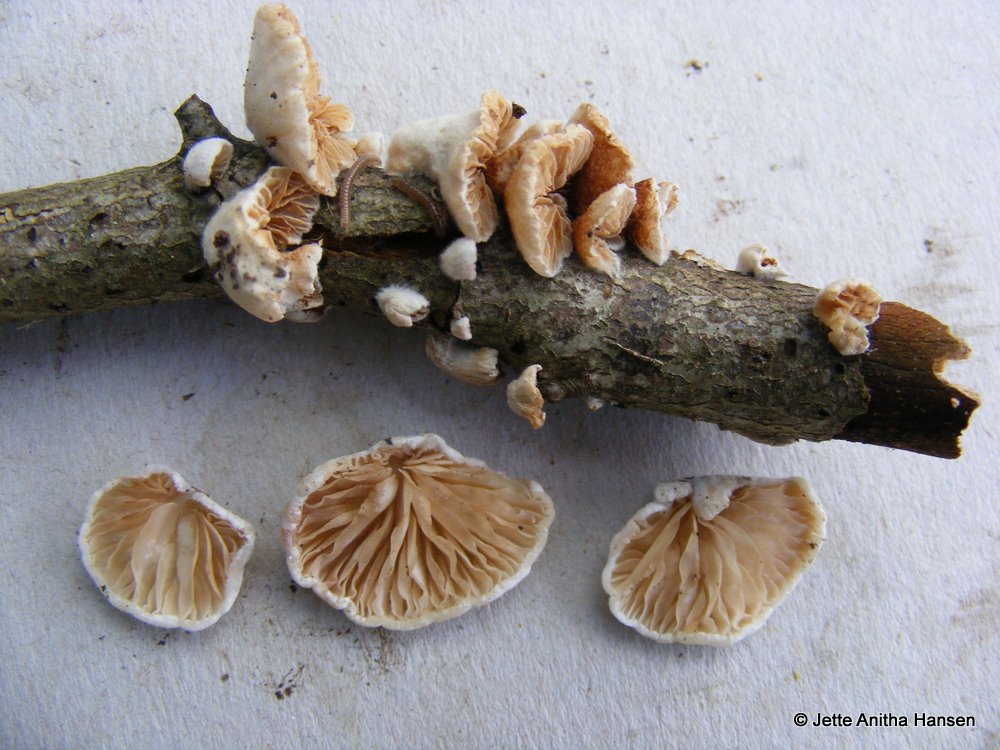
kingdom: Fungi
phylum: Basidiomycota
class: Agaricomycetes
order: Agaricales
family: Crepidotaceae
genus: Crepidotus
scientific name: Crepidotus cesatii
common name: almindelig muslingesvamp
